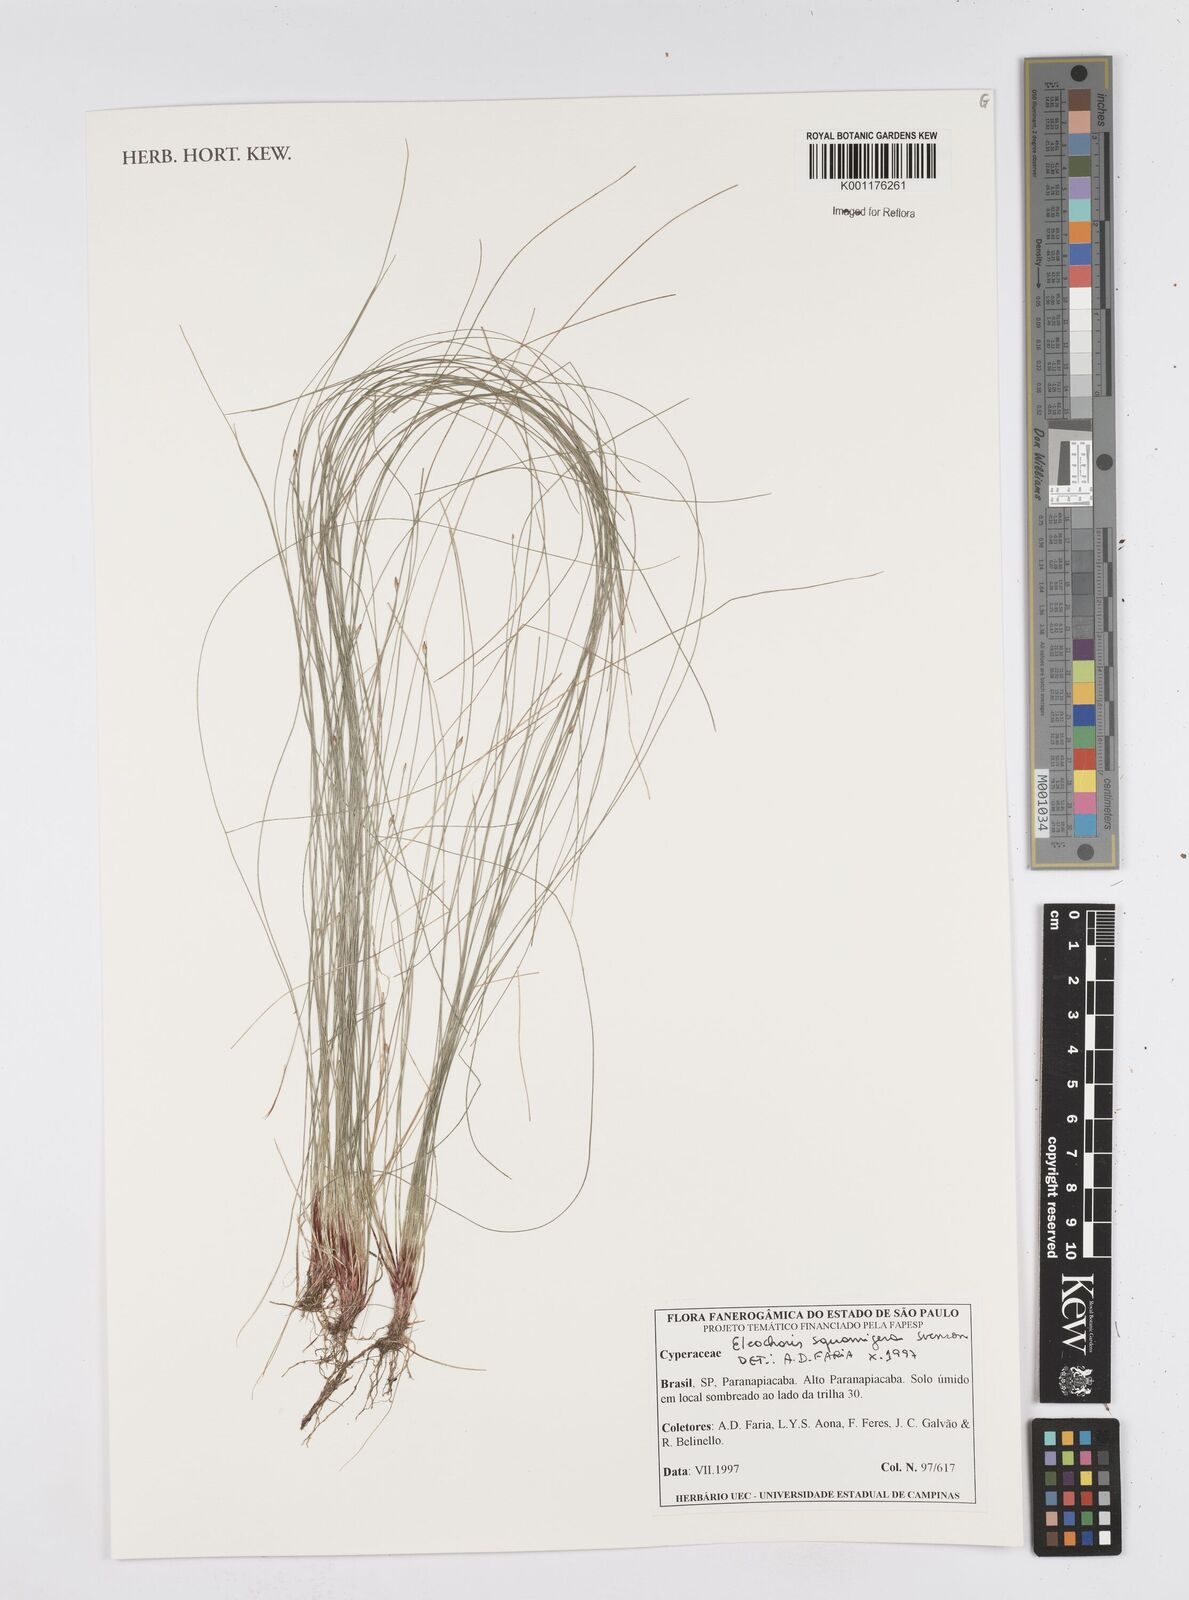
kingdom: Plantae
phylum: Tracheophyta
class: Liliopsida
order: Poales
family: Cyperaceae
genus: Eleocharis
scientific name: Eleocharis squamigera
